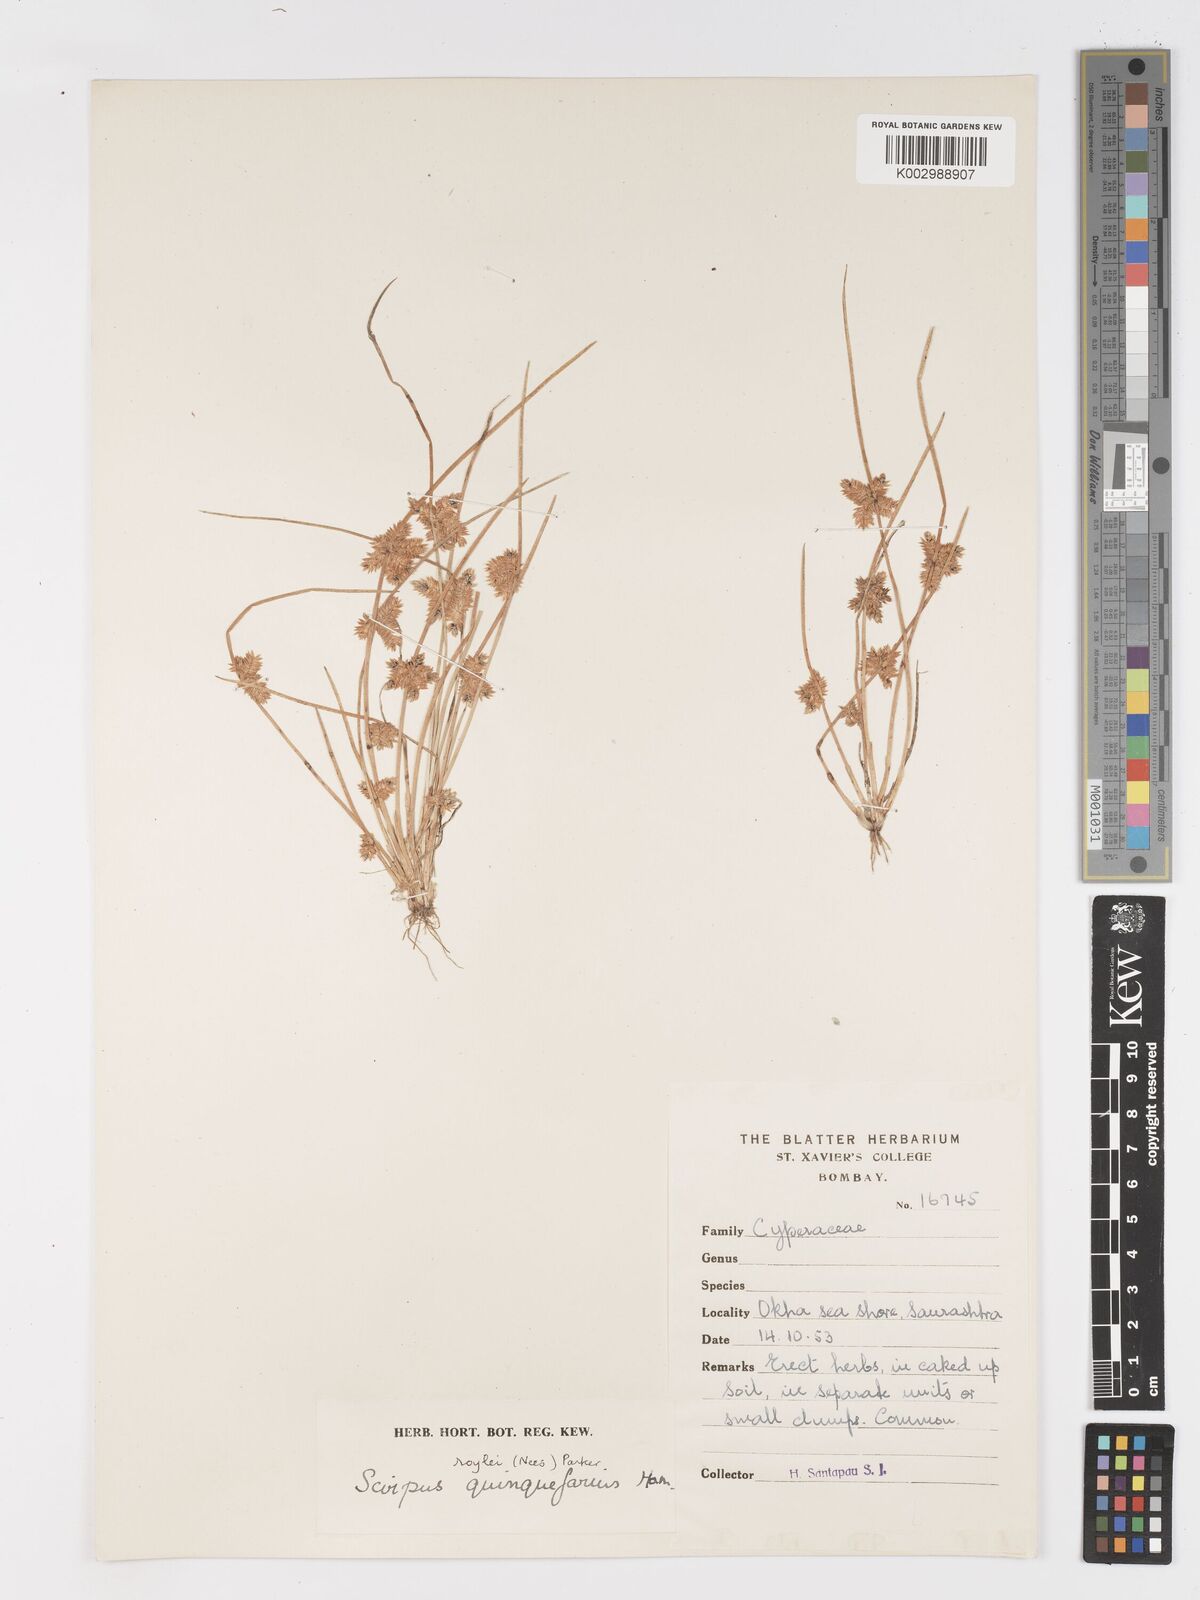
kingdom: Plantae
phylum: Tracheophyta
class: Liliopsida
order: Poales
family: Cyperaceae
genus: Schoenoplectiella
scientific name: Schoenoplectiella roylei
